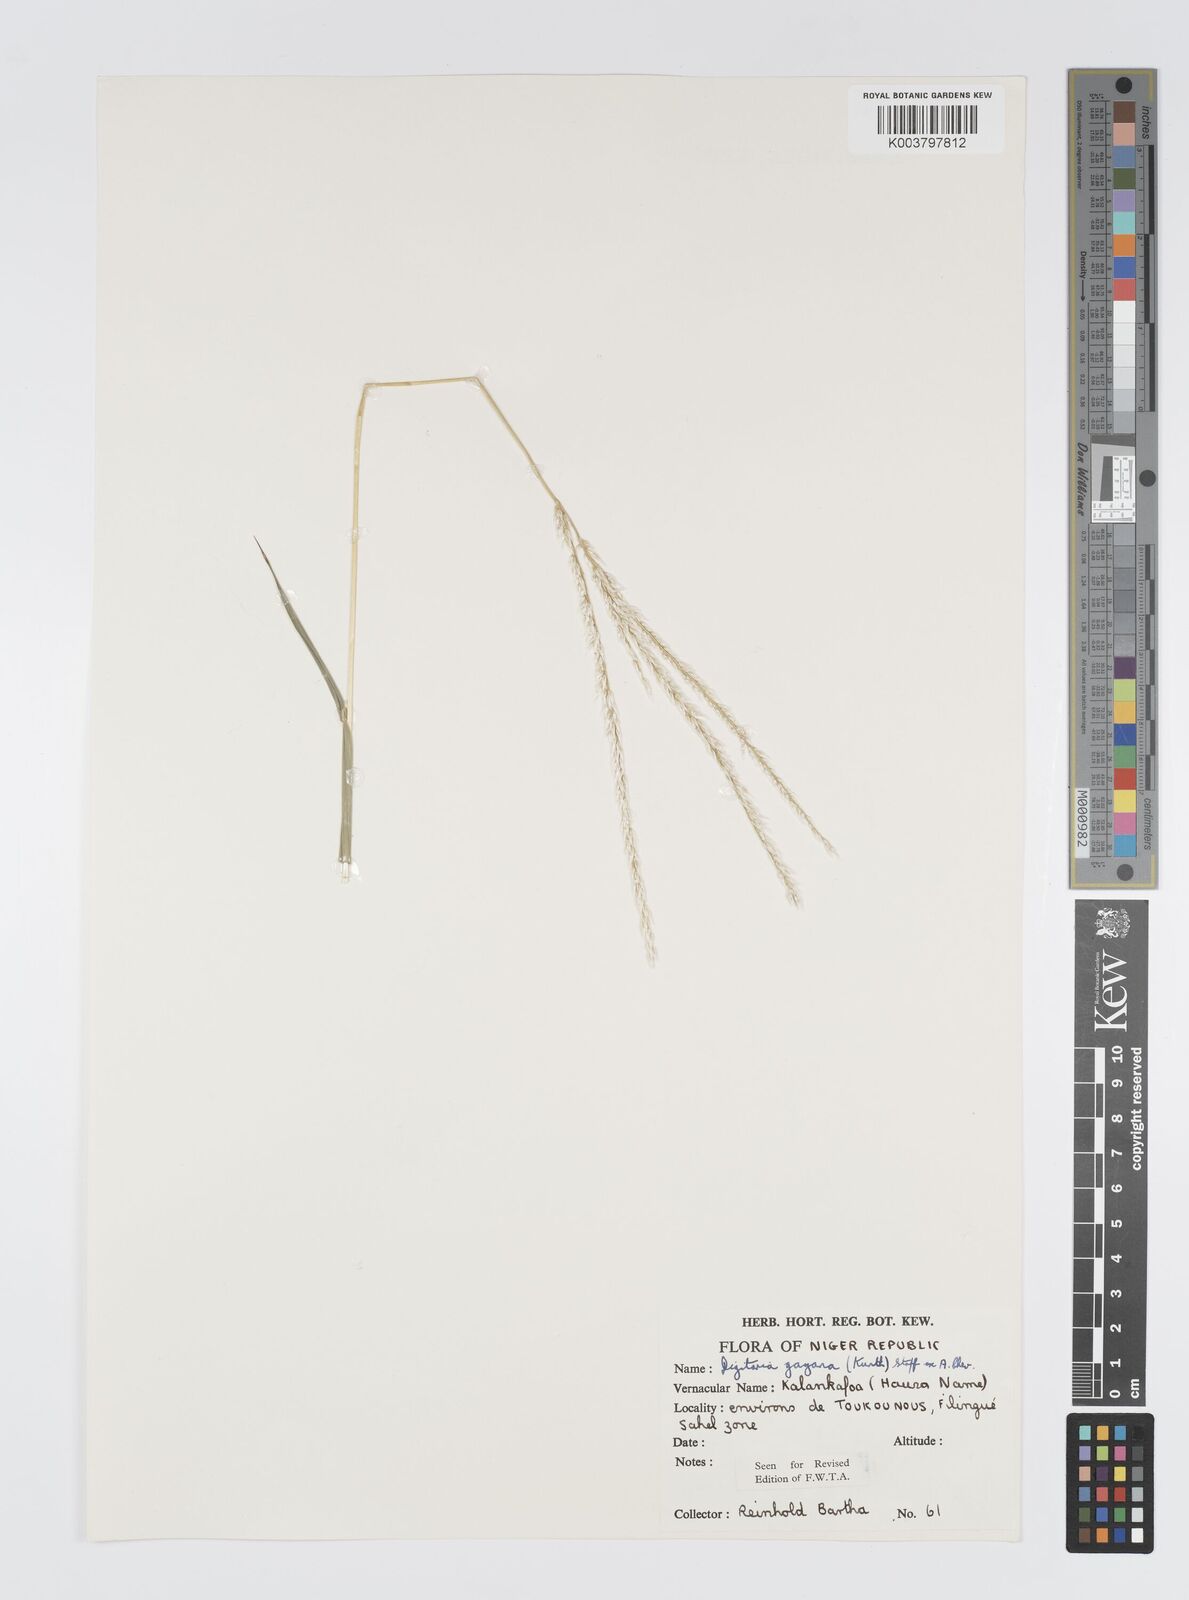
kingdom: Plantae
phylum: Tracheophyta
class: Liliopsida
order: Poales
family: Poaceae
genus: Digitaria
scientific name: Digitaria gayana
